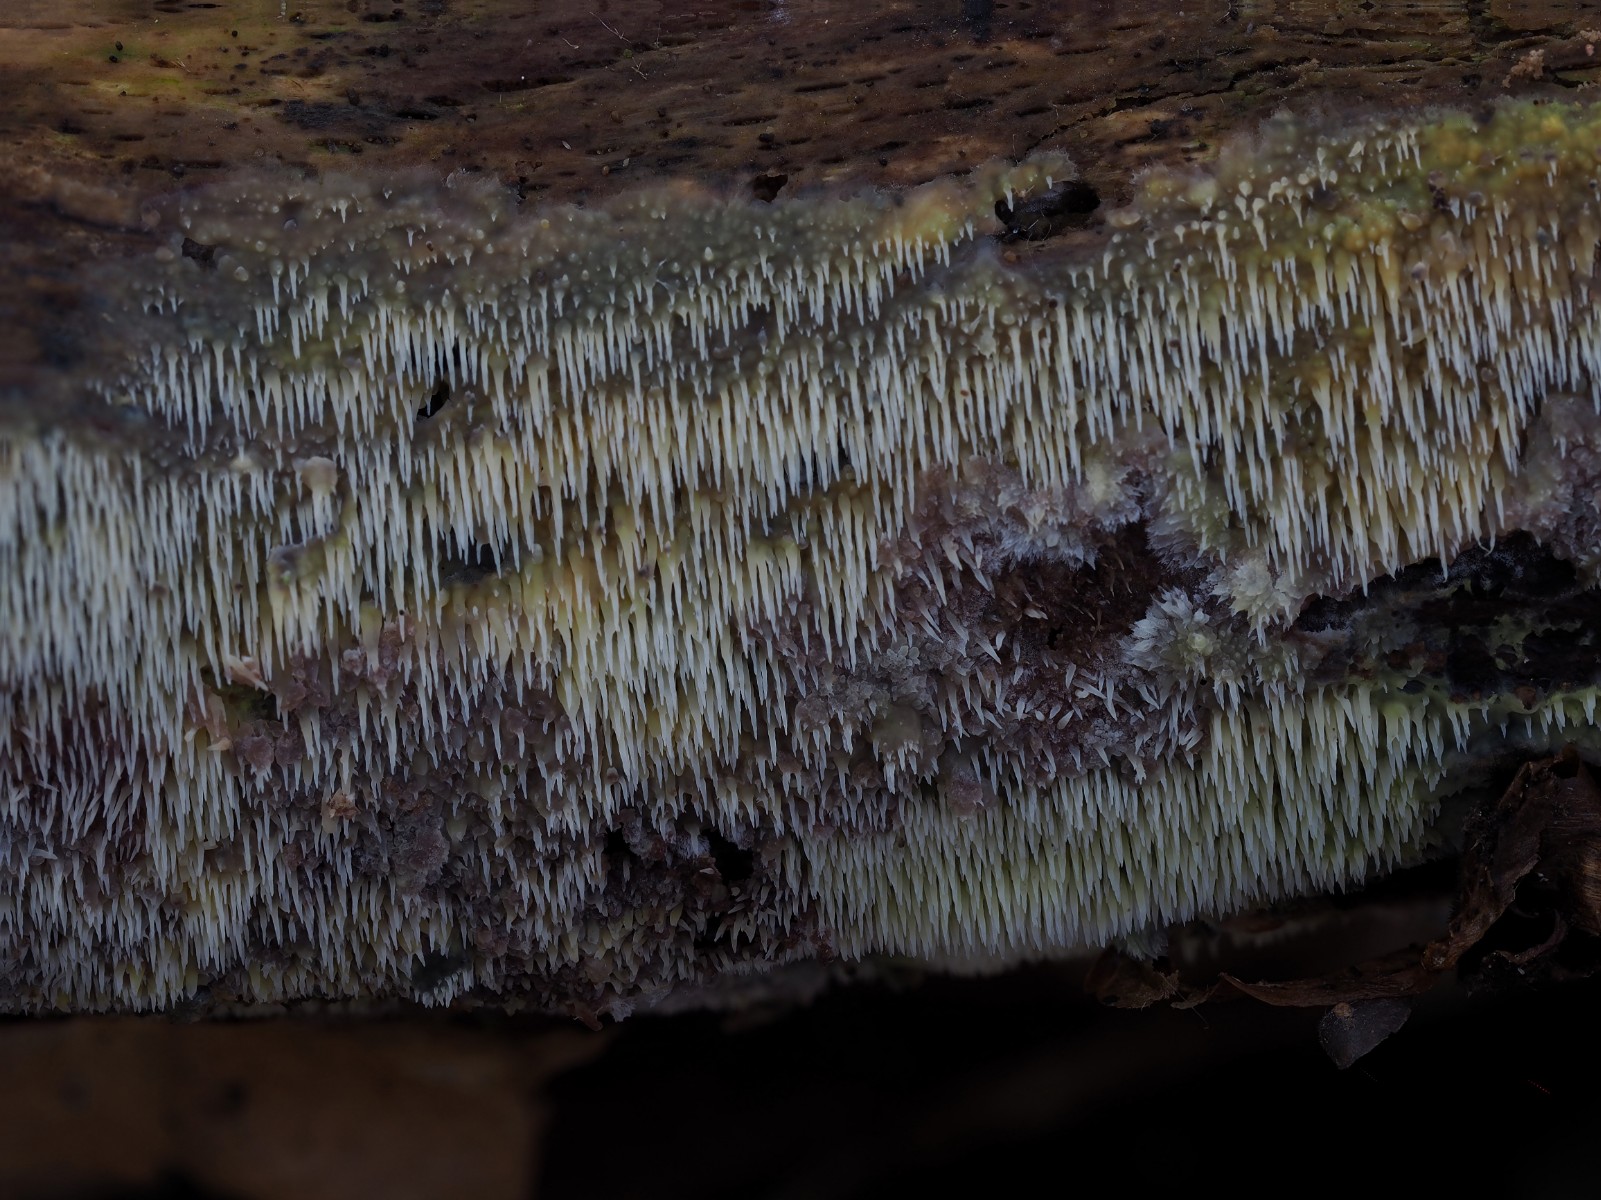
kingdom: Fungi
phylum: Basidiomycota
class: Agaricomycetes
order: Polyporales
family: Meruliaceae
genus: Mycoacia
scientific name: Mycoacia uda
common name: citrongul vokspig
